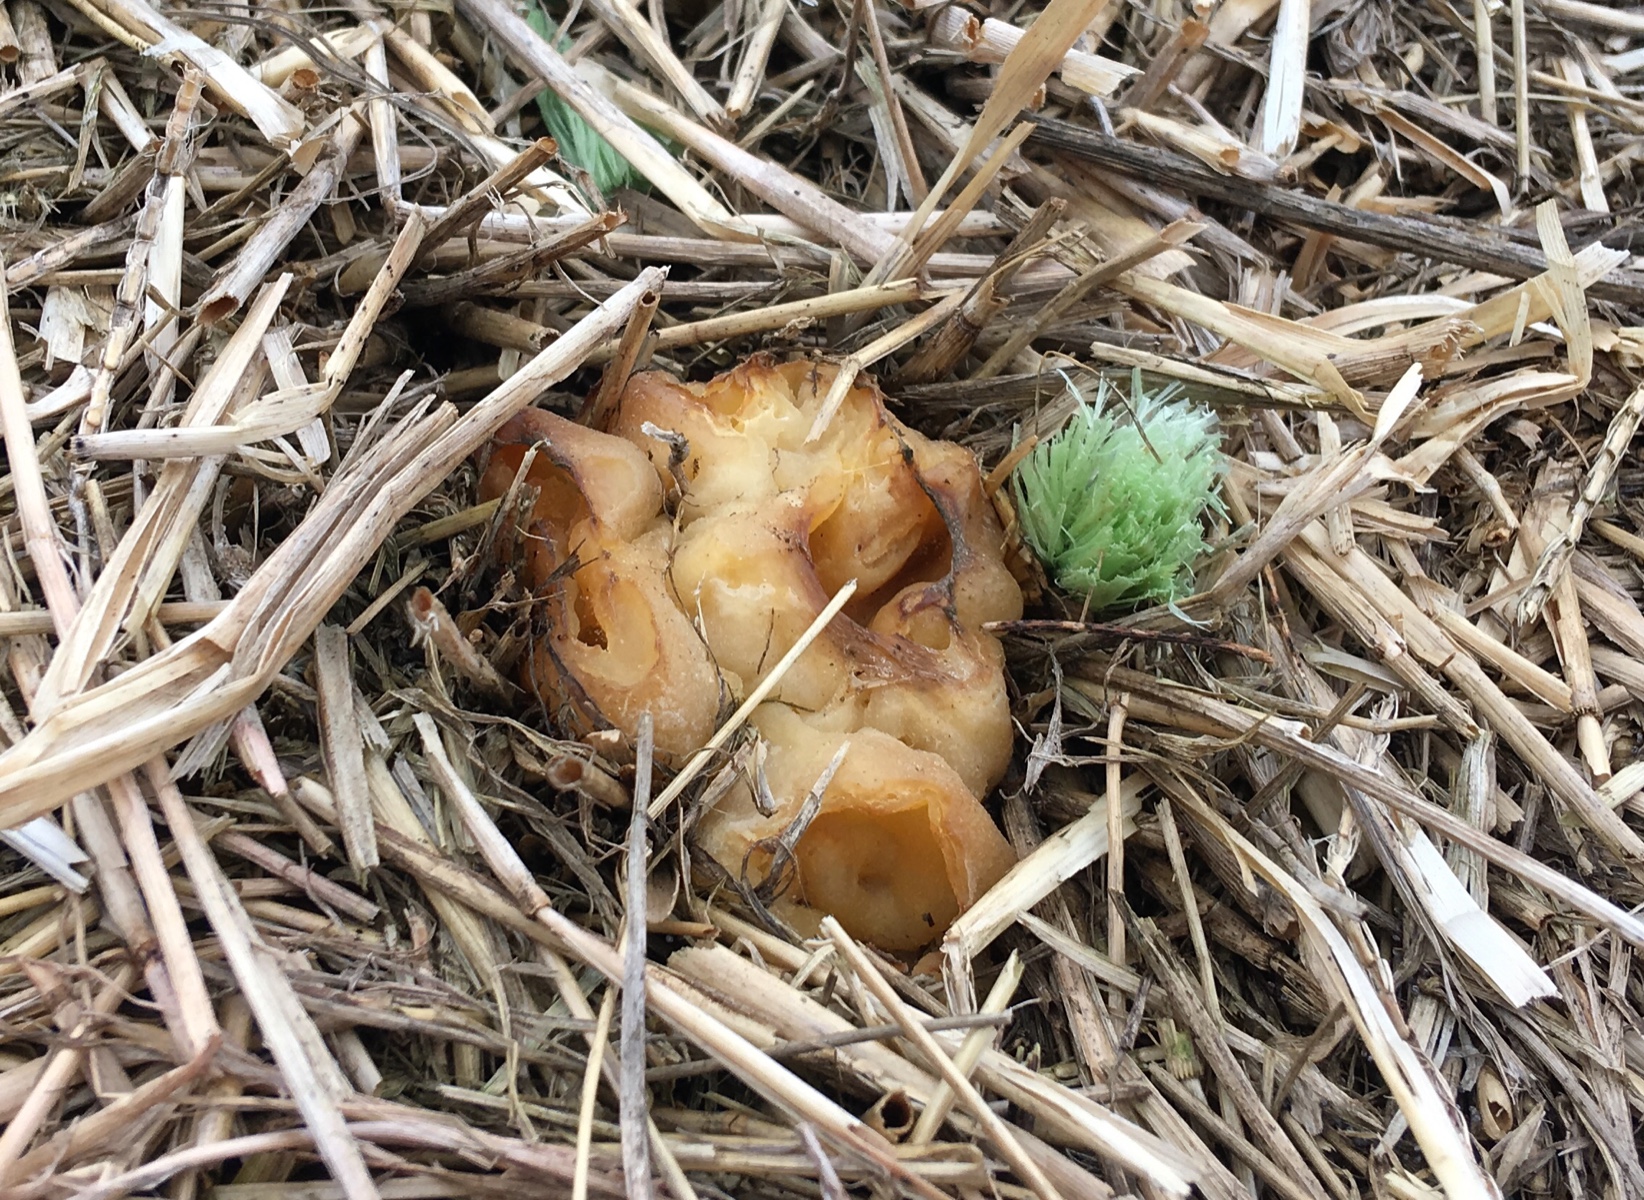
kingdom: Fungi
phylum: Ascomycota
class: Pezizomycetes
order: Pezizales
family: Pezizaceae
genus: Peziza
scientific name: Peziza vesiculosa
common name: blære-bægersvamp
